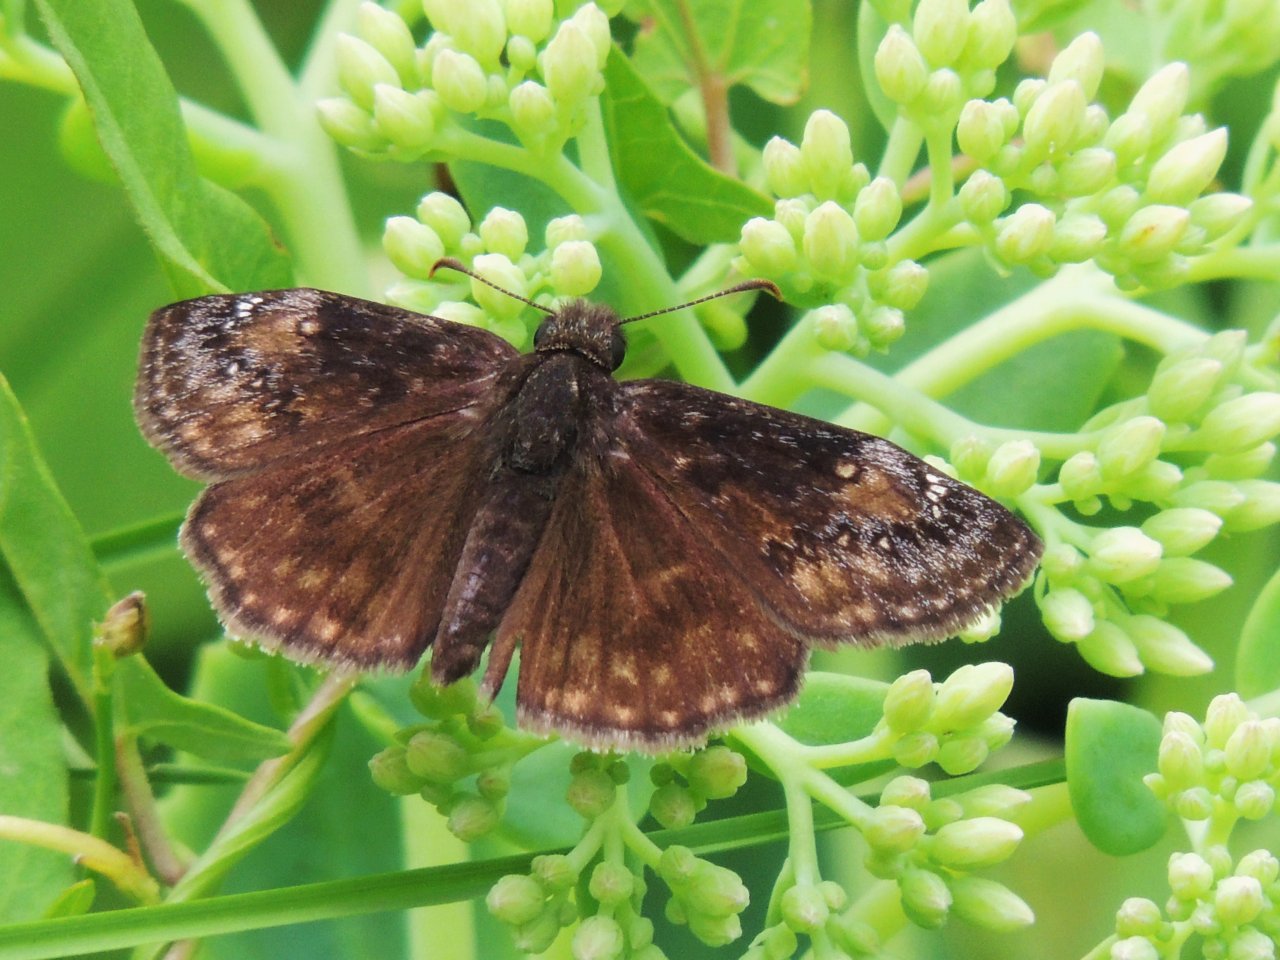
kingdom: Animalia
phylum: Arthropoda
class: Insecta
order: Lepidoptera
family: Hesperiidae
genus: Gesta
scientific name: Gesta
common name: Wild Indigo Duskywing
